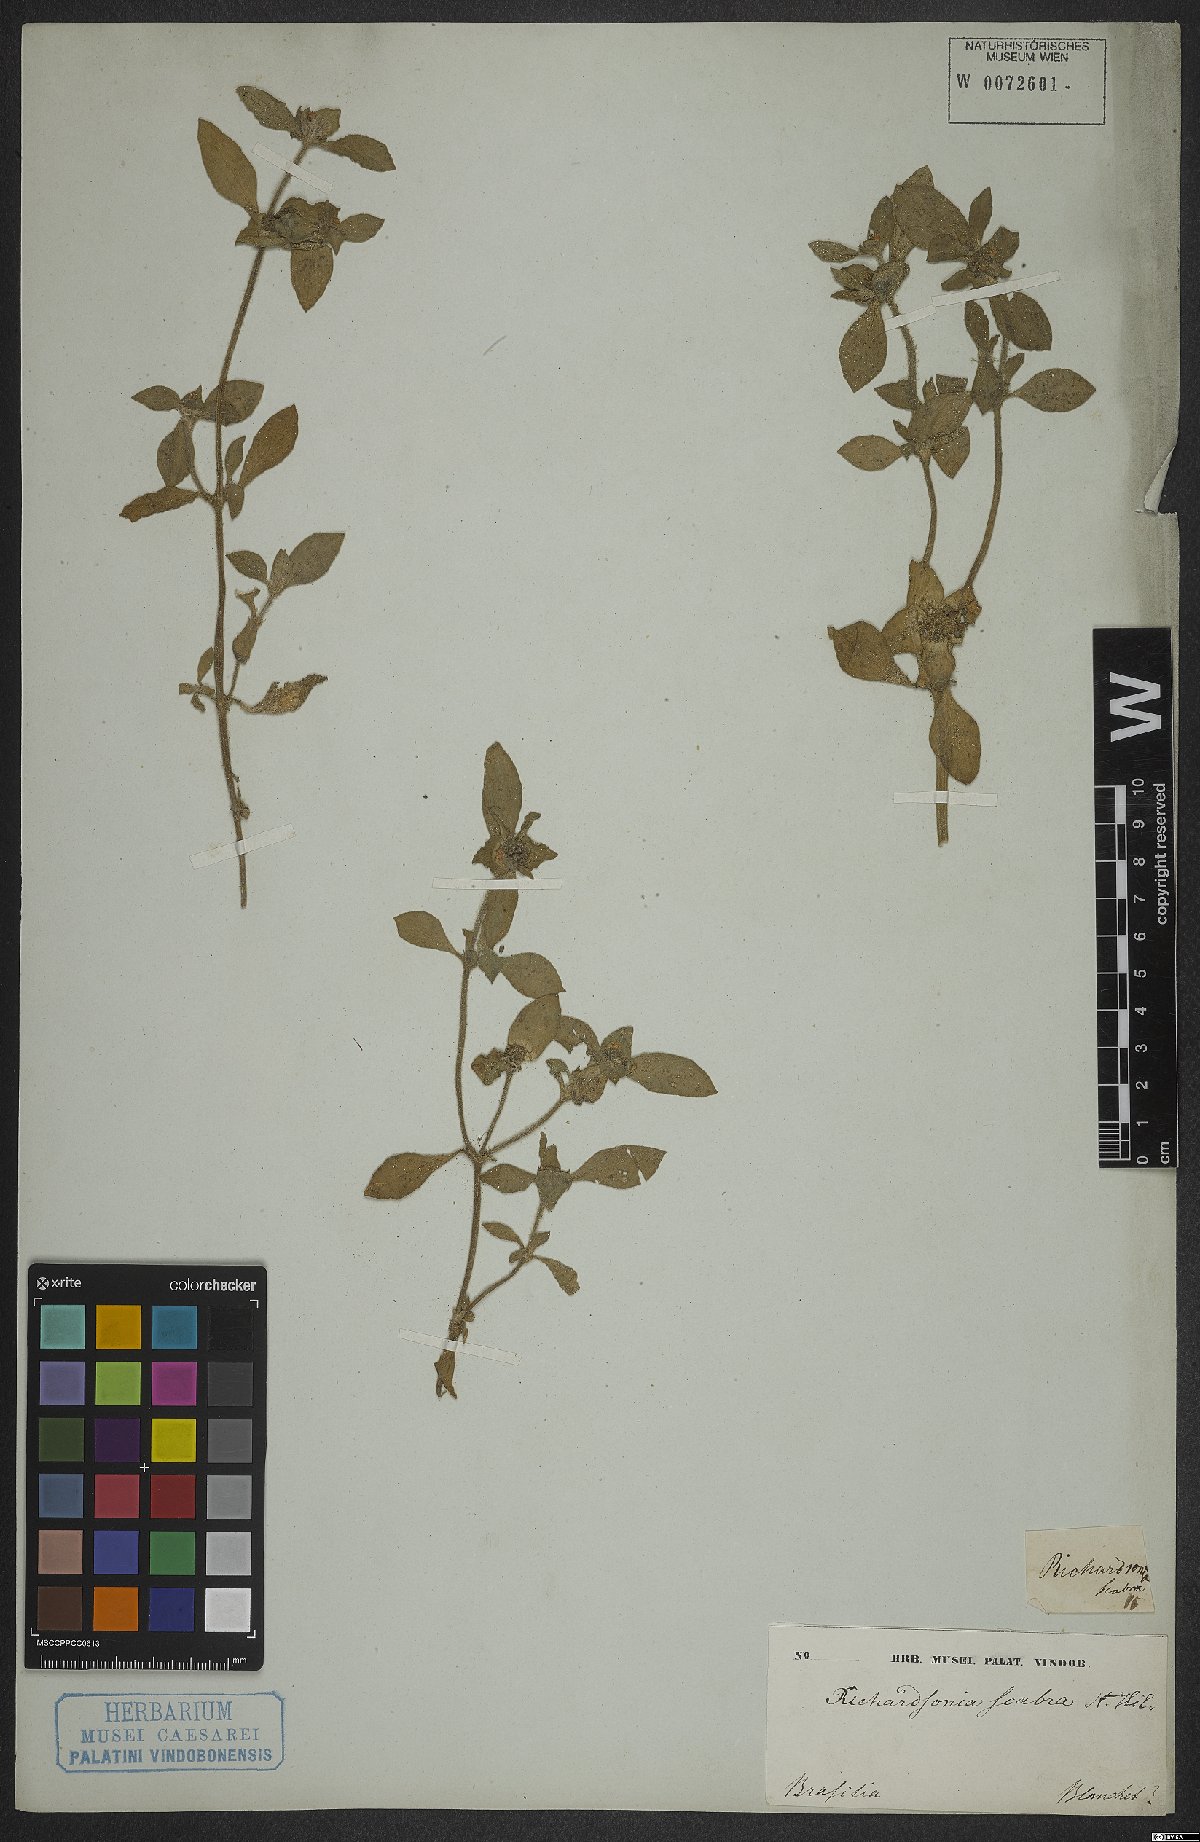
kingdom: Plantae
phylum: Tracheophyta
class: Magnoliopsida
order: Gentianales
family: Rubiaceae
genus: Richardia
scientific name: Richardia scabra
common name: Rough mexican clover
